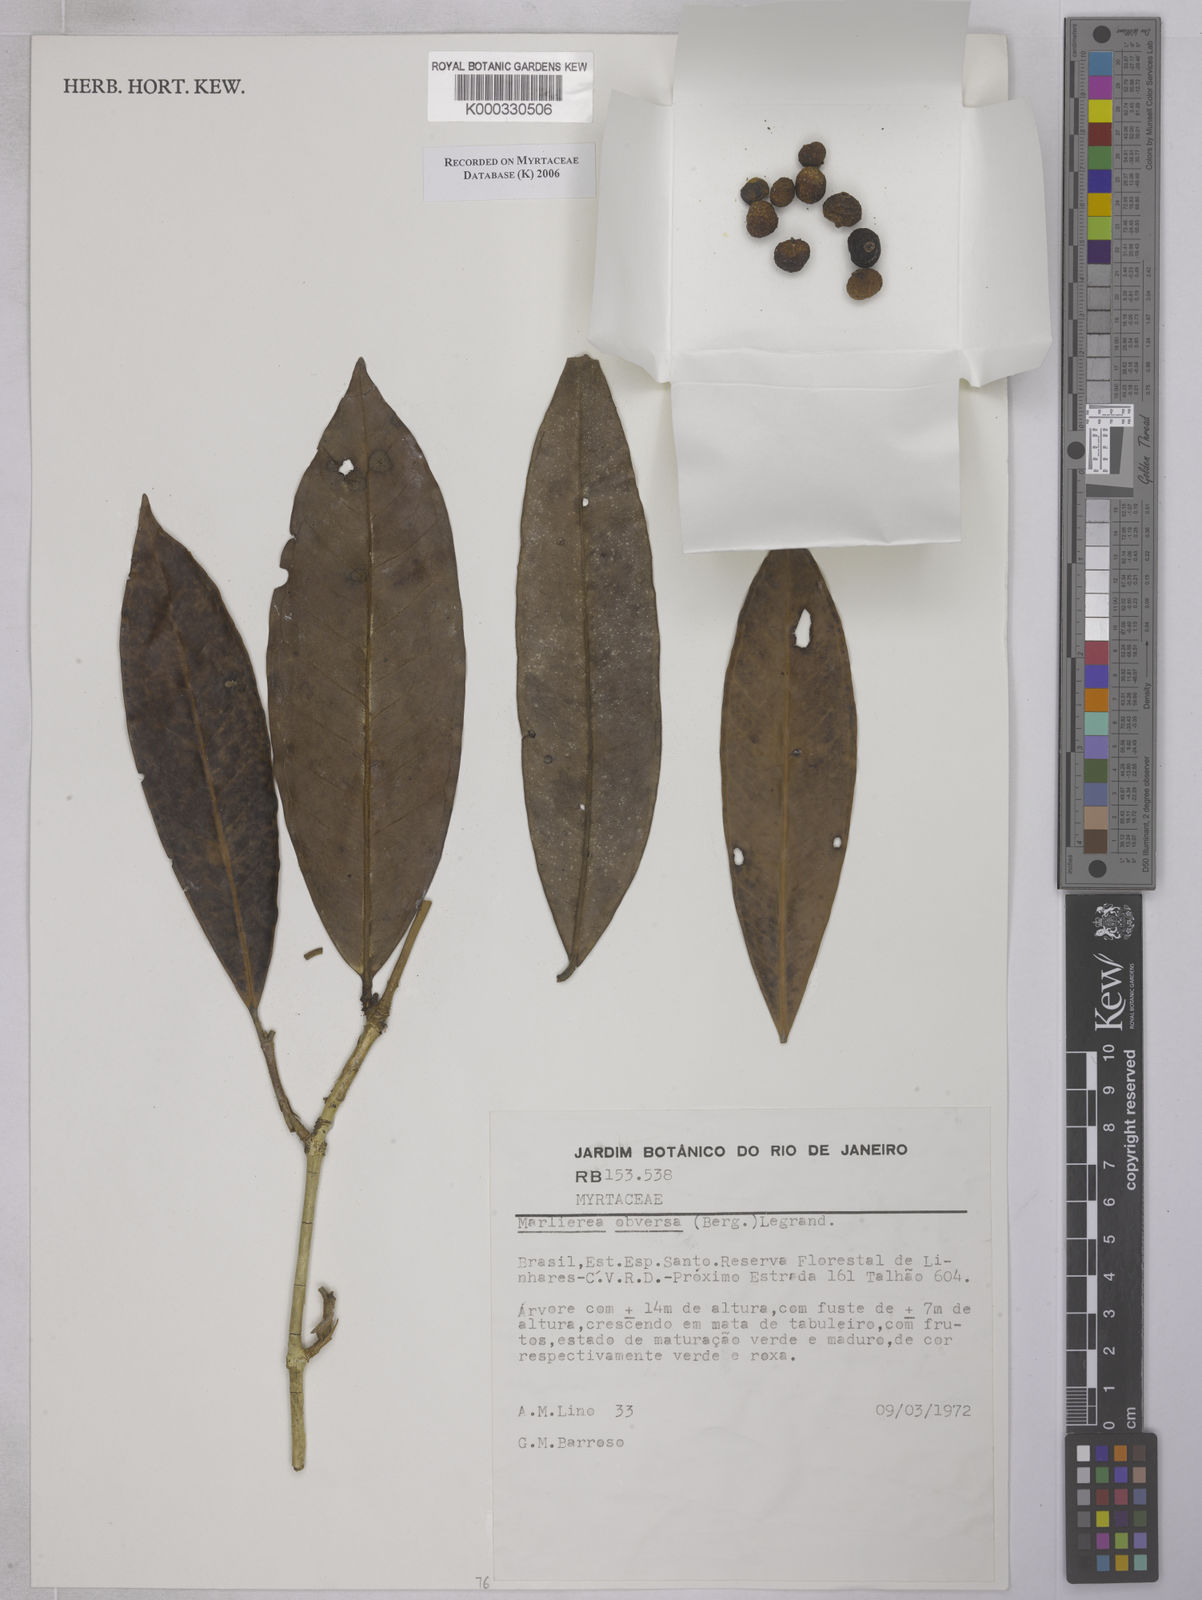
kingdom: Plantae
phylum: Tracheophyta
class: Magnoliopsida
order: Myrtales
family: Myrtaceae
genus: Myrcia
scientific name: Myrcia obversa
